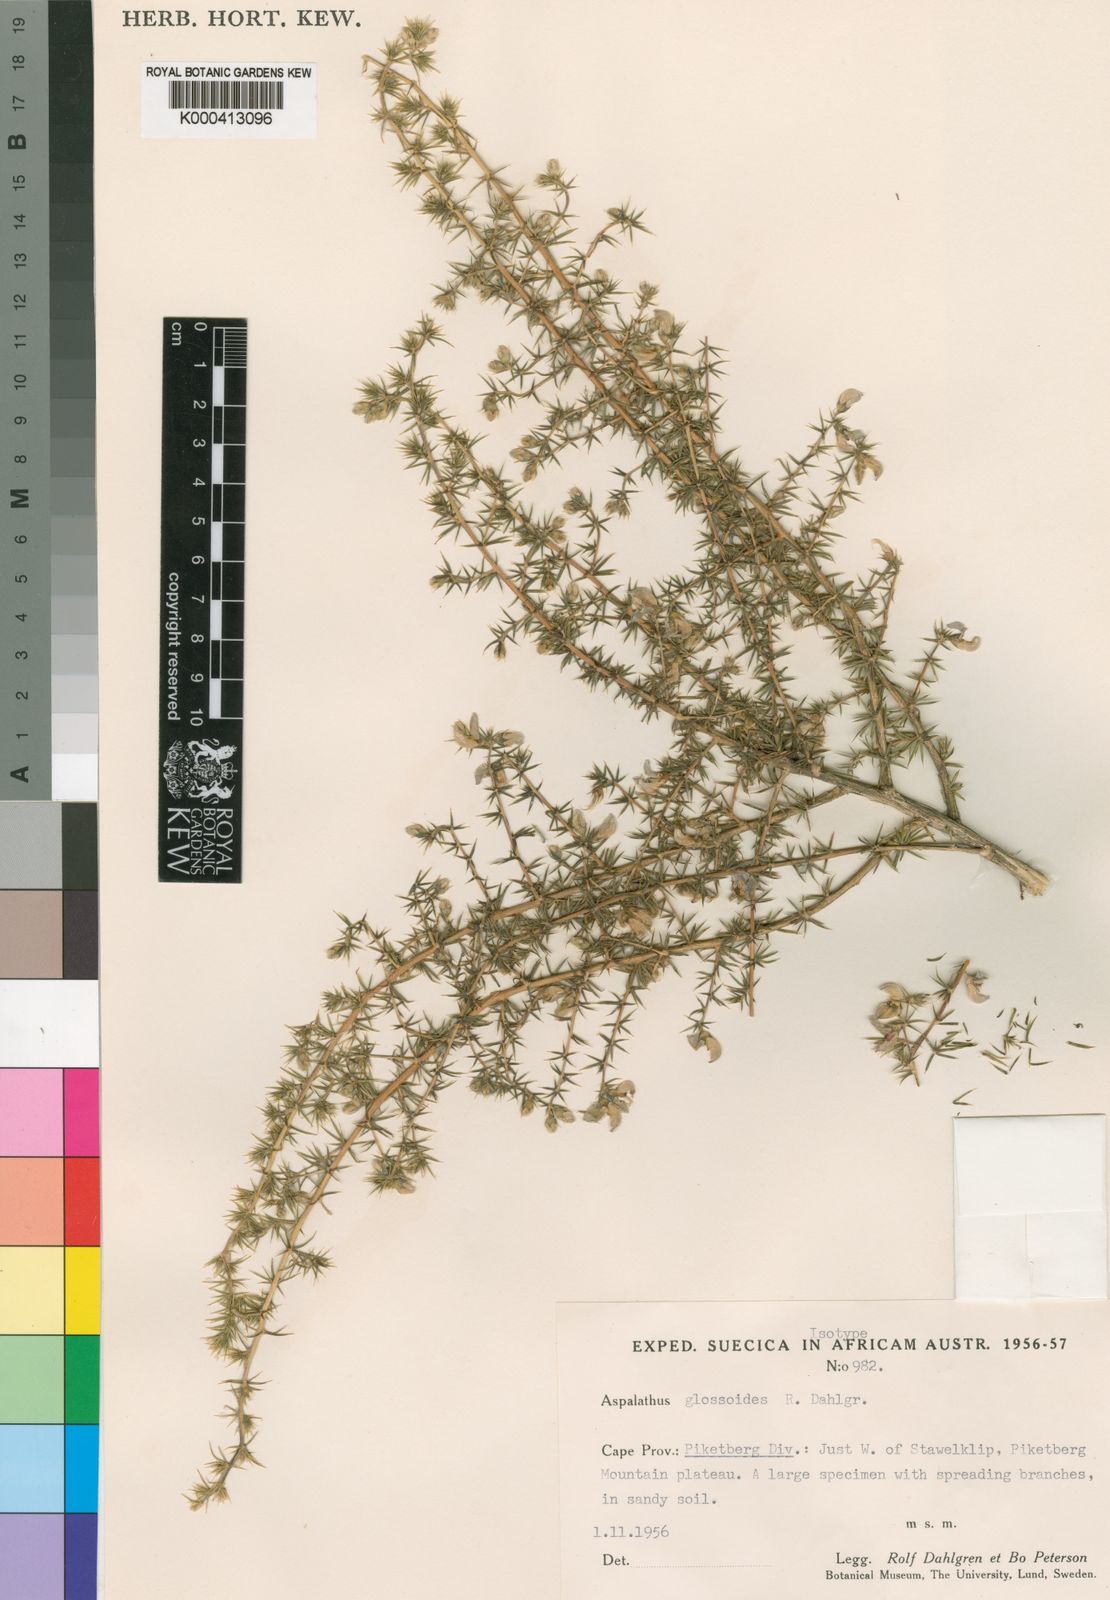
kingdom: Plantae
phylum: Tracheophyta
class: Magnoliopsida
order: Fabales
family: Fabaceae
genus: Aspalathus
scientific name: Aspalathus glossoides
